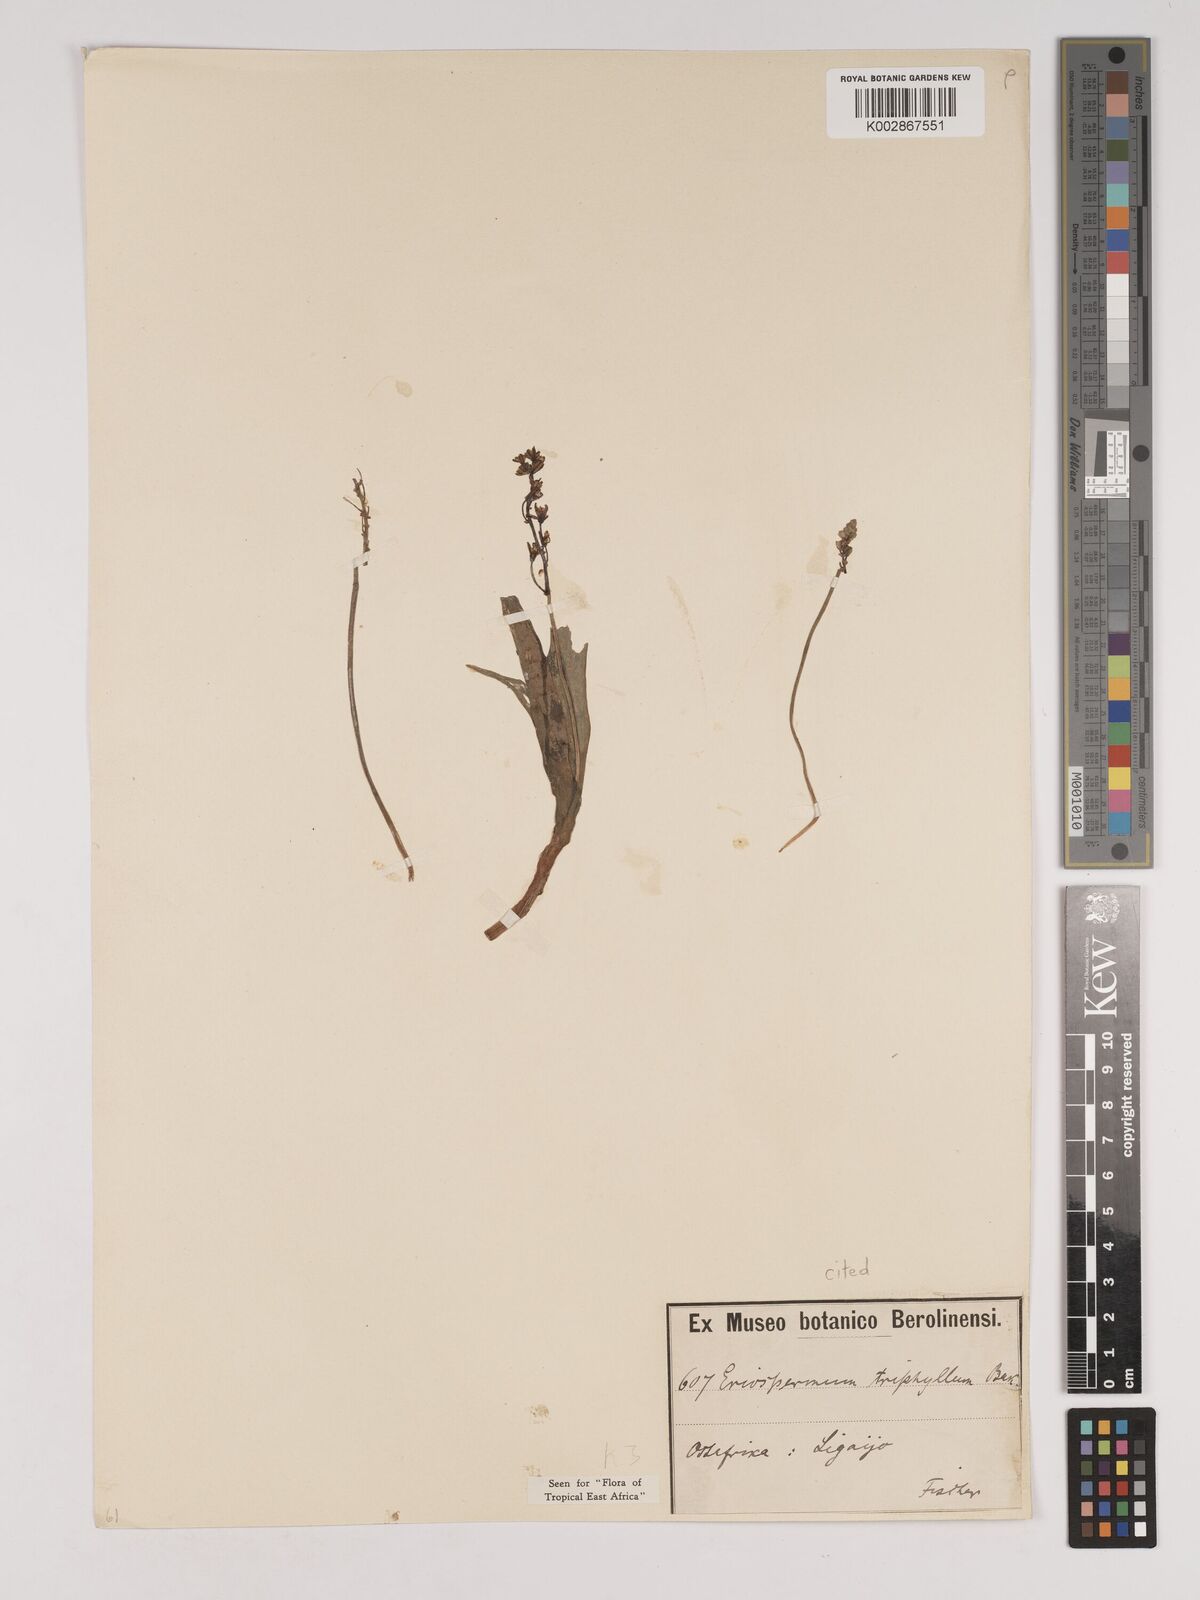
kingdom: Plantae
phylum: Tracheophyta
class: Liliopsida
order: Asparagales
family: Asparagaceae
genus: Eriospermum
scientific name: Eriospermum triphyllum
